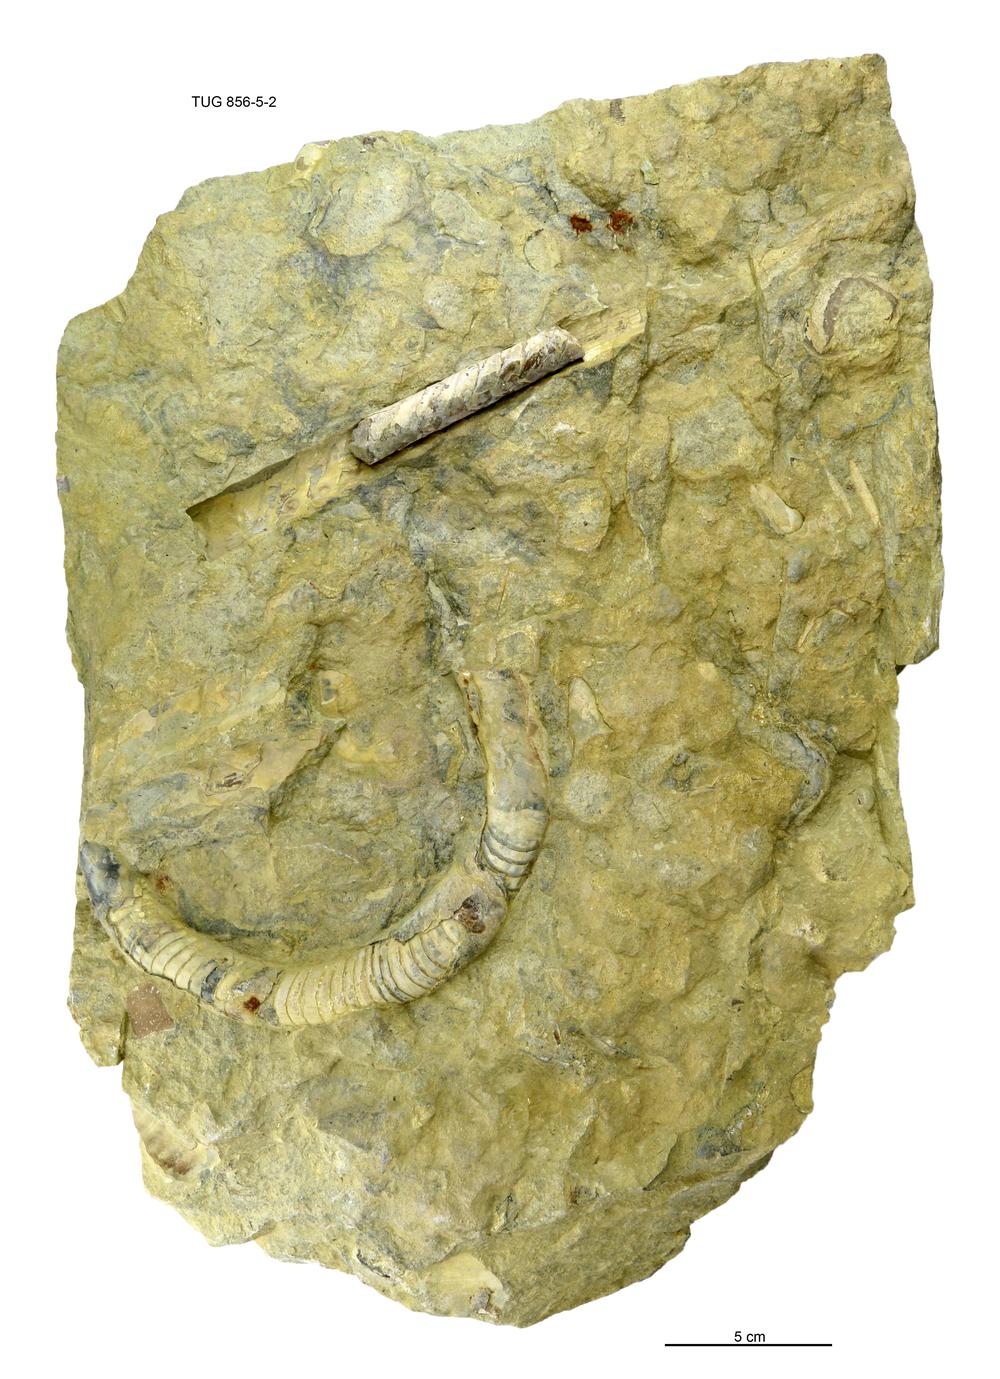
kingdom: Animalia
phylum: Mollusca
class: Cephalopoda
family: Estonioceratidae
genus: Tragoceras
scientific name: Tragoceras
